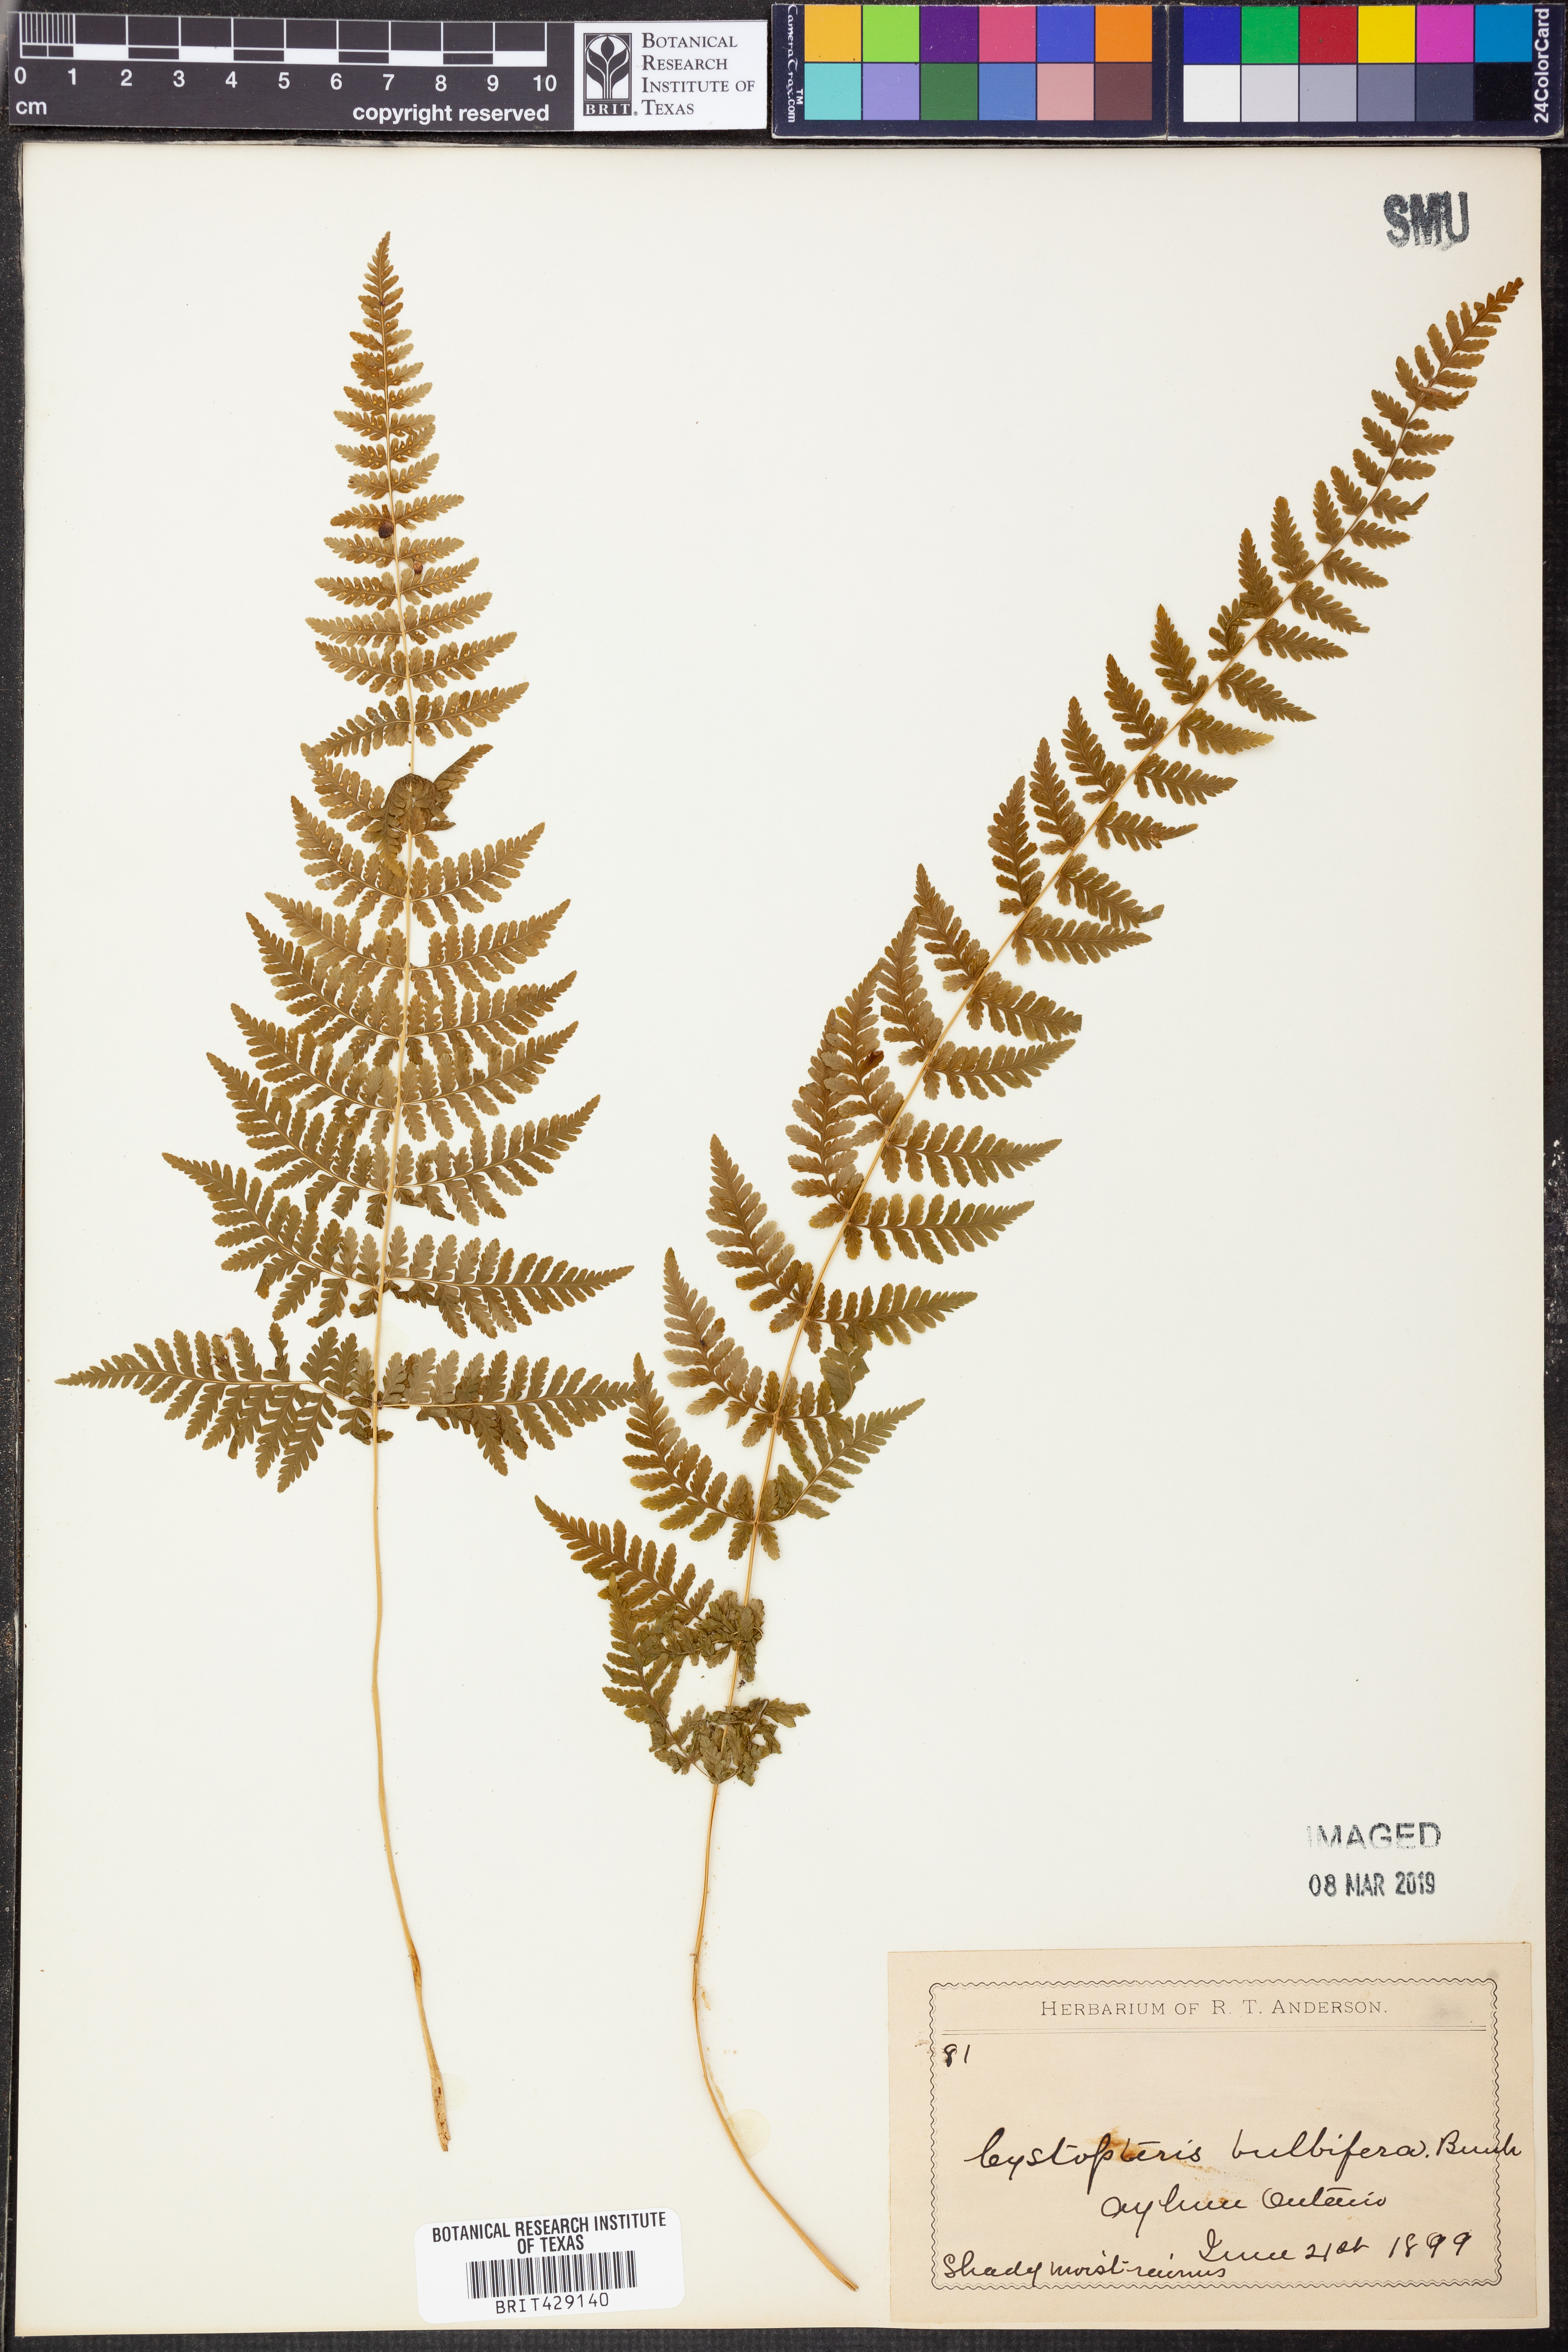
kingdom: Plantae
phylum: Tracheophyta
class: Polypodiopsida
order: Polypodiales
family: Cystopteridaceae
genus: Cystopteris
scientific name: Cystopteris bulbifera
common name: Bulblet bladder fern
